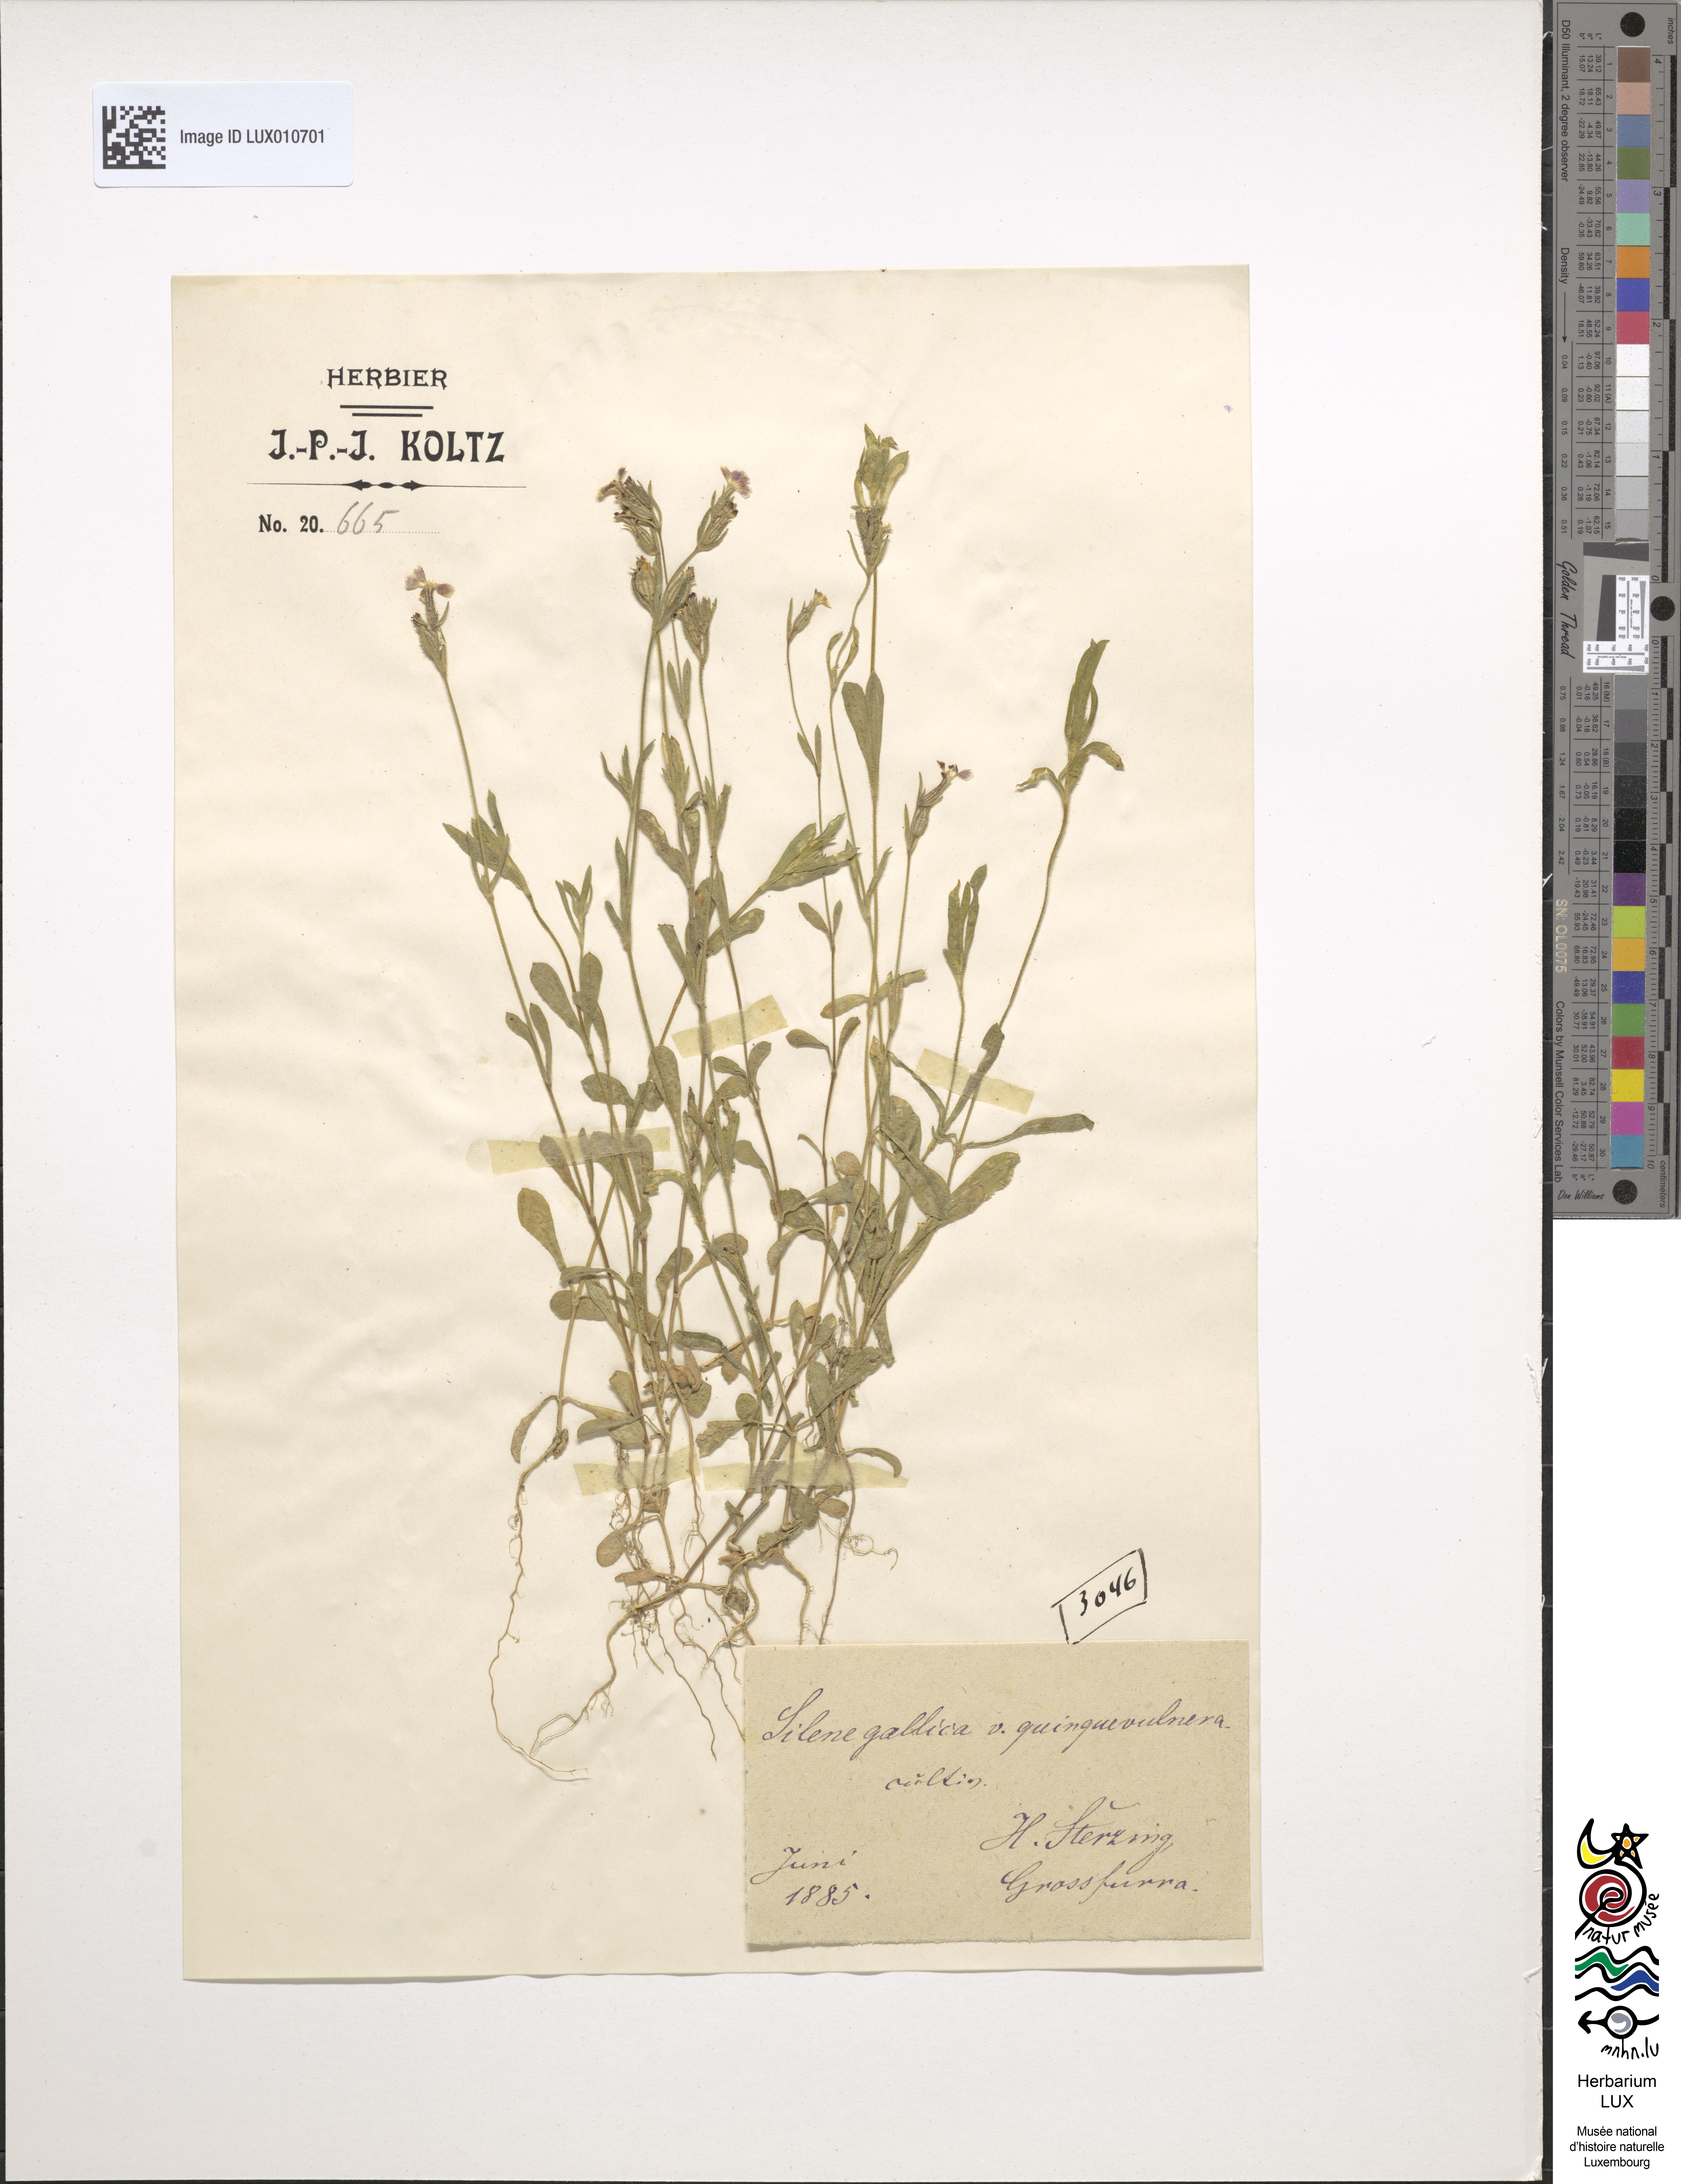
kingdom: Plantae
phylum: Tracheophyta
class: Magnoliopsida
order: Caryophyllales
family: Caryophyllaceae
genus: Silene
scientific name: Silene gallica
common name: Small-flowered catchfly
